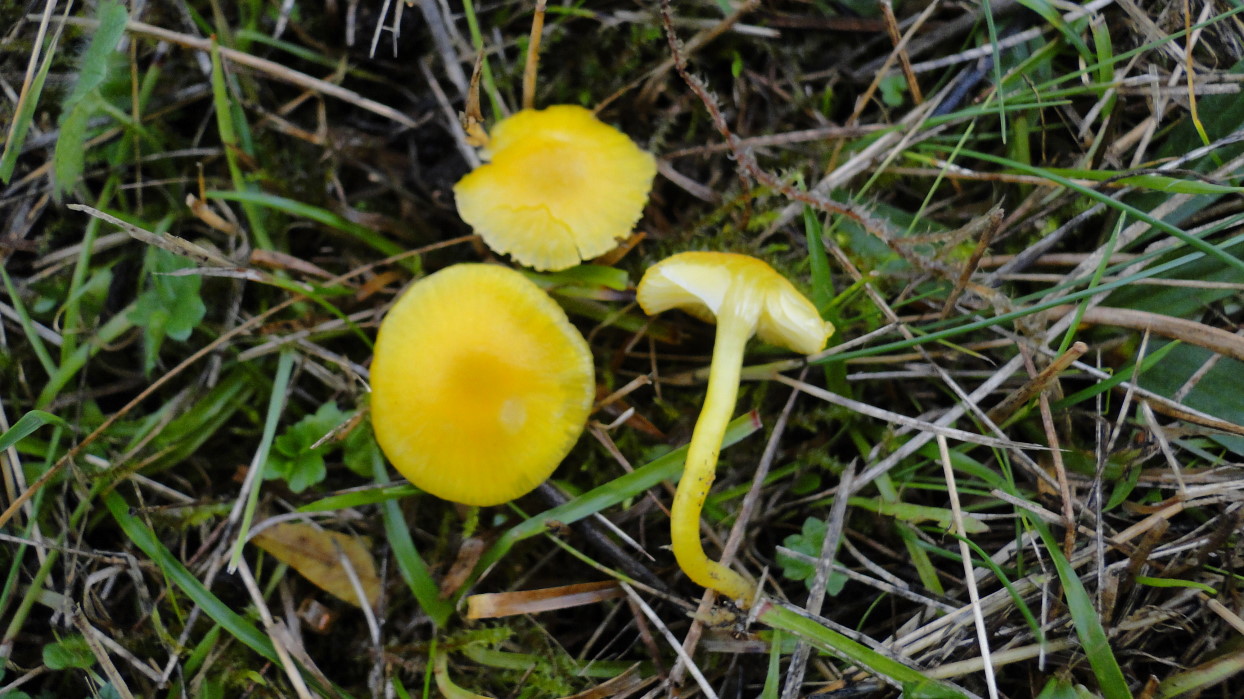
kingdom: Fungi
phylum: Basidiomycota
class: Agaricomycetes
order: Agaricales
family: Hygrophoraceae
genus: Hygrocybe
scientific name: Hygrocybe ceracea
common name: voksgul vokshat
